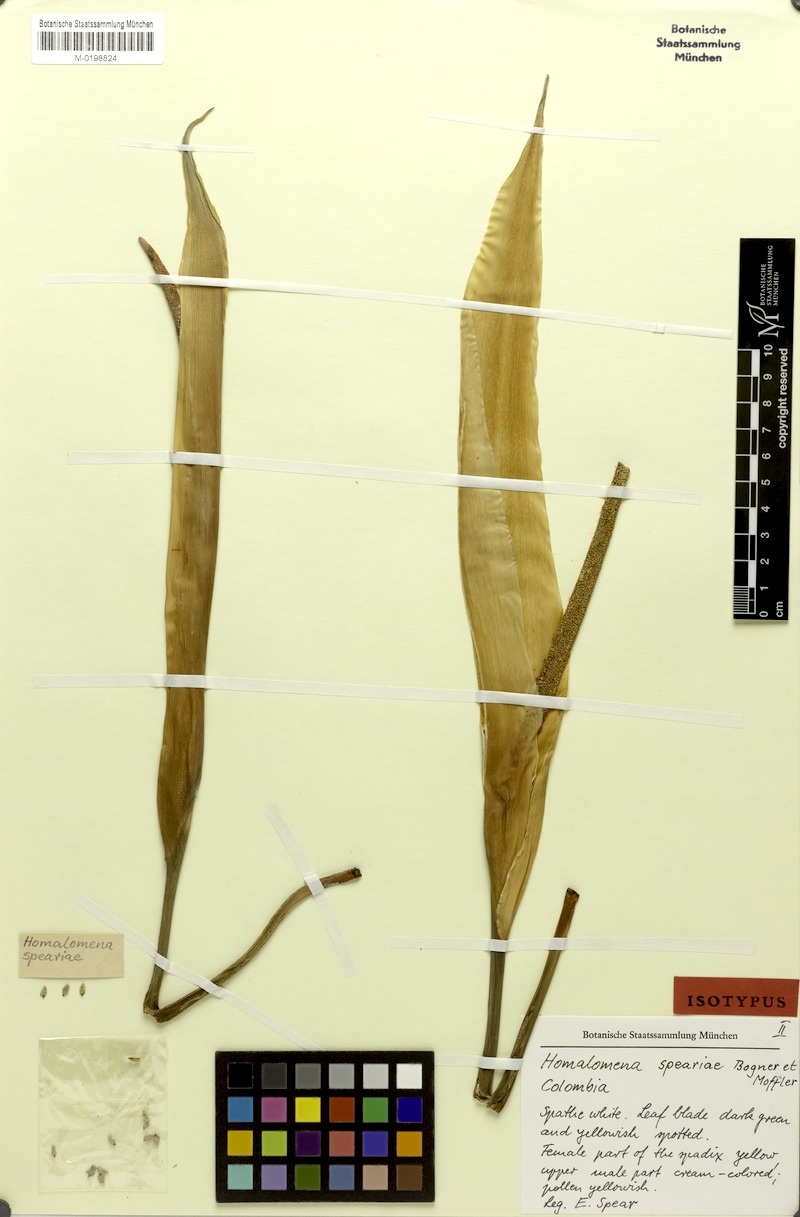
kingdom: Plantae
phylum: Tracheophyta
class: Liliopsida
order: Alismatales
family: Araceae
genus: Adelonema
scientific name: Adelonema speariae
